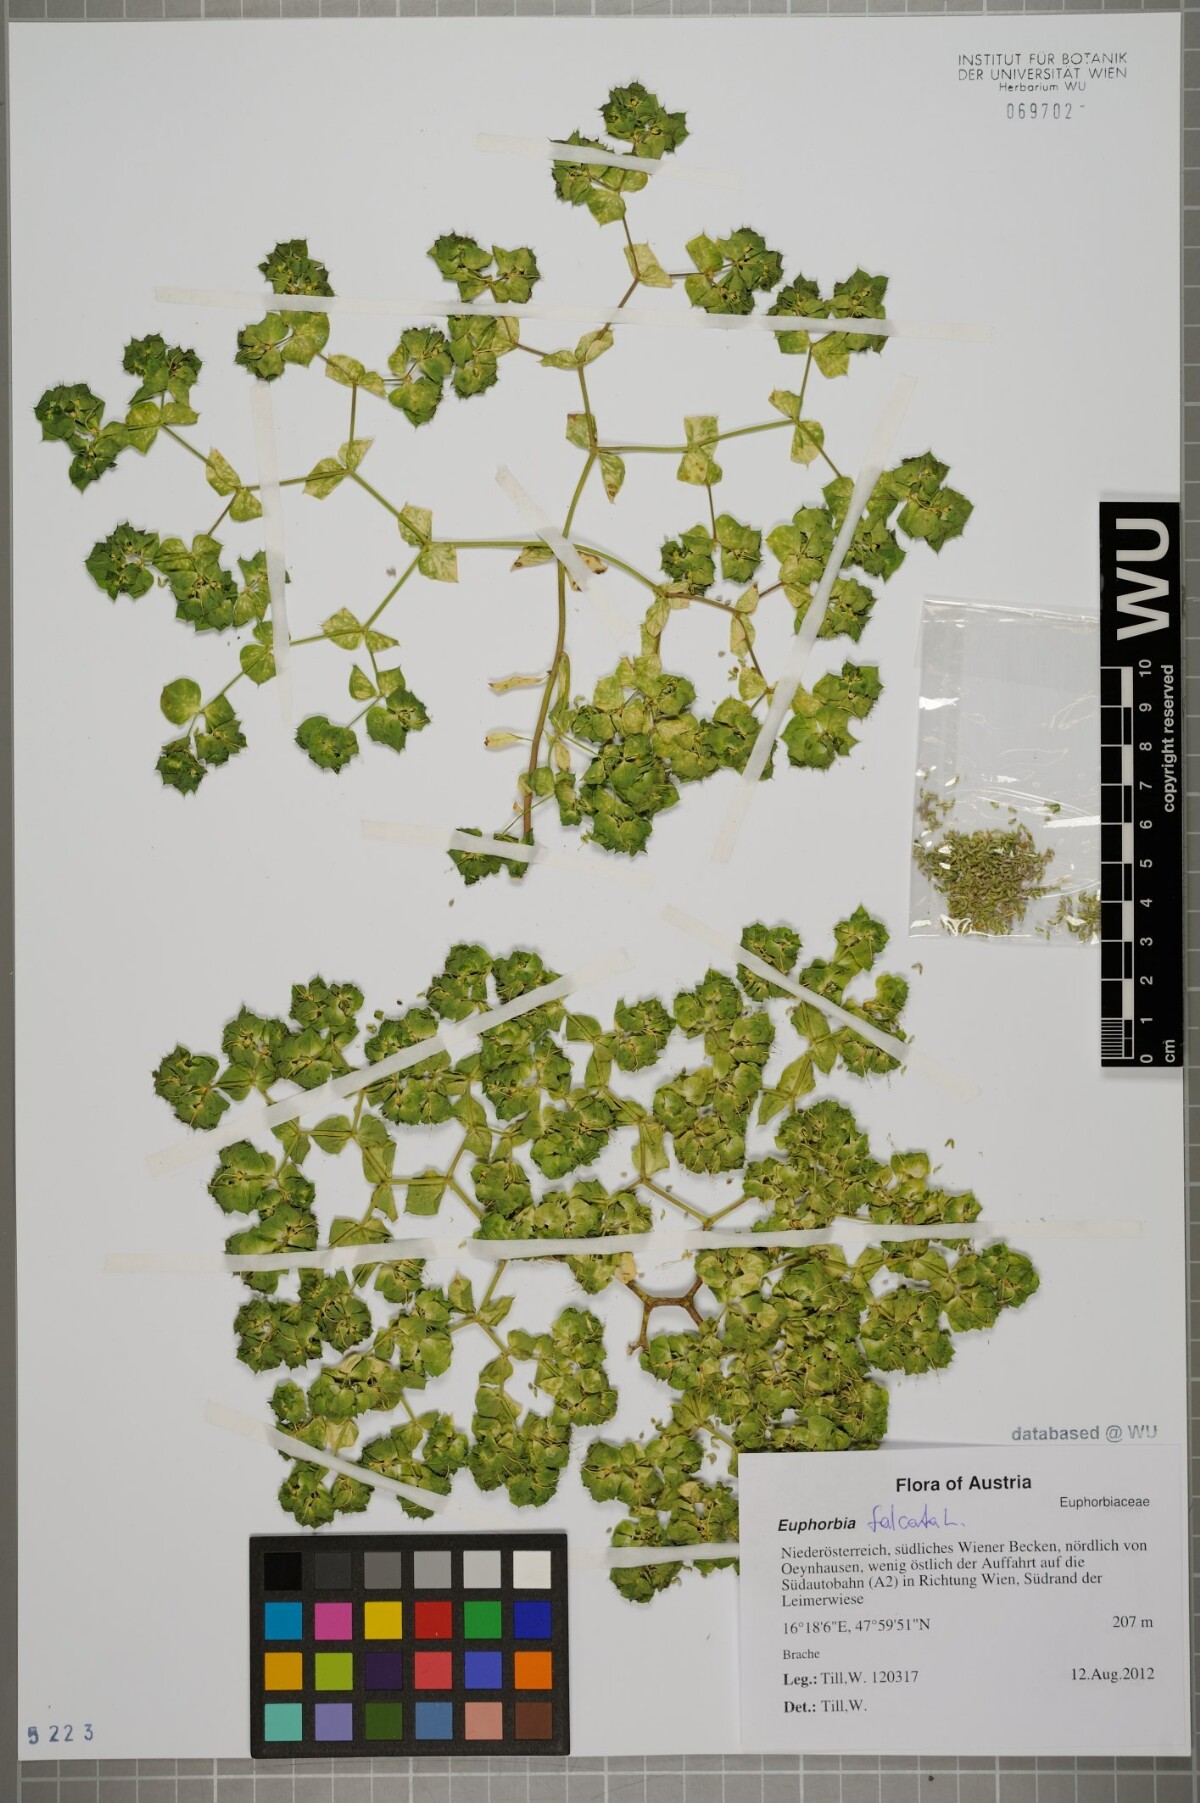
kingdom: Plantae
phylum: Tracheophyta
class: Magnoliopsida
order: Malpighiales
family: Euphorbiaceae
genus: Euphorbia
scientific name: Euphorbia falcata
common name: Sickle spurge
